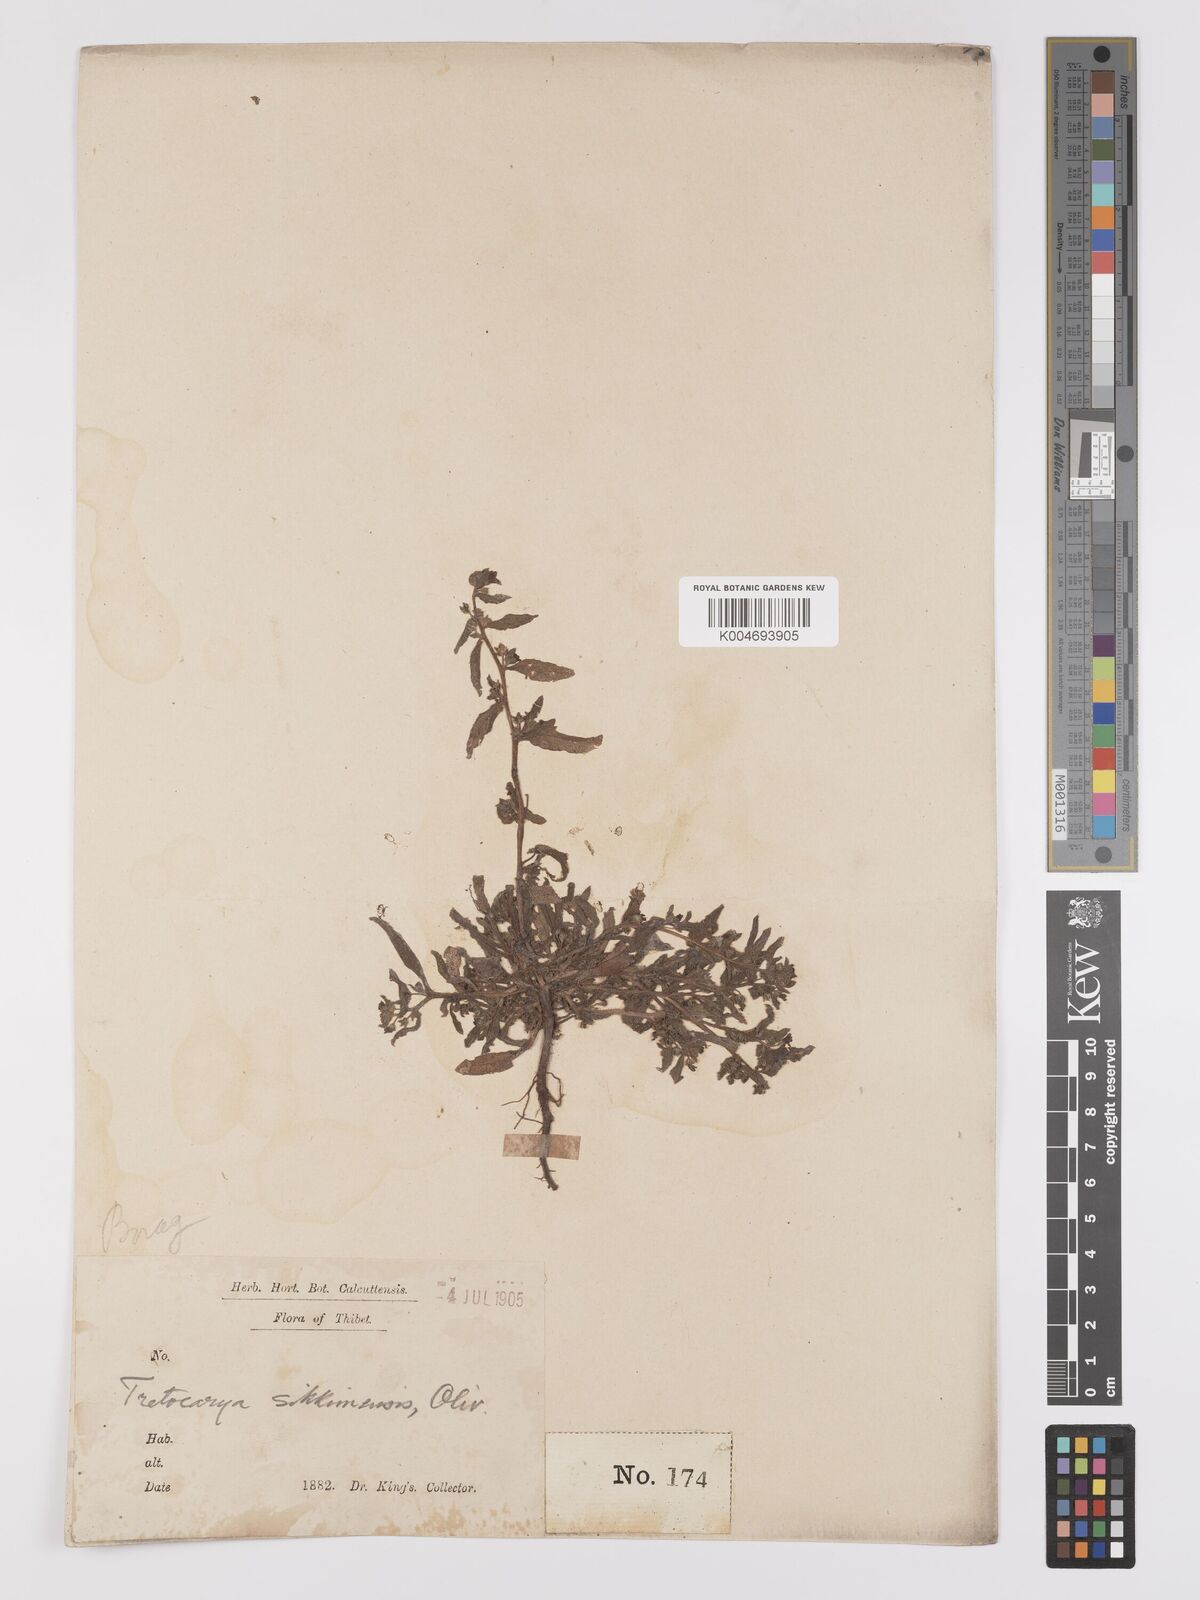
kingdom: Plantae
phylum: Tracheophyta
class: Magnoliopsida
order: Boraginales
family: Boraginaceae
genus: Microula
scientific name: Microula sikkimensis
